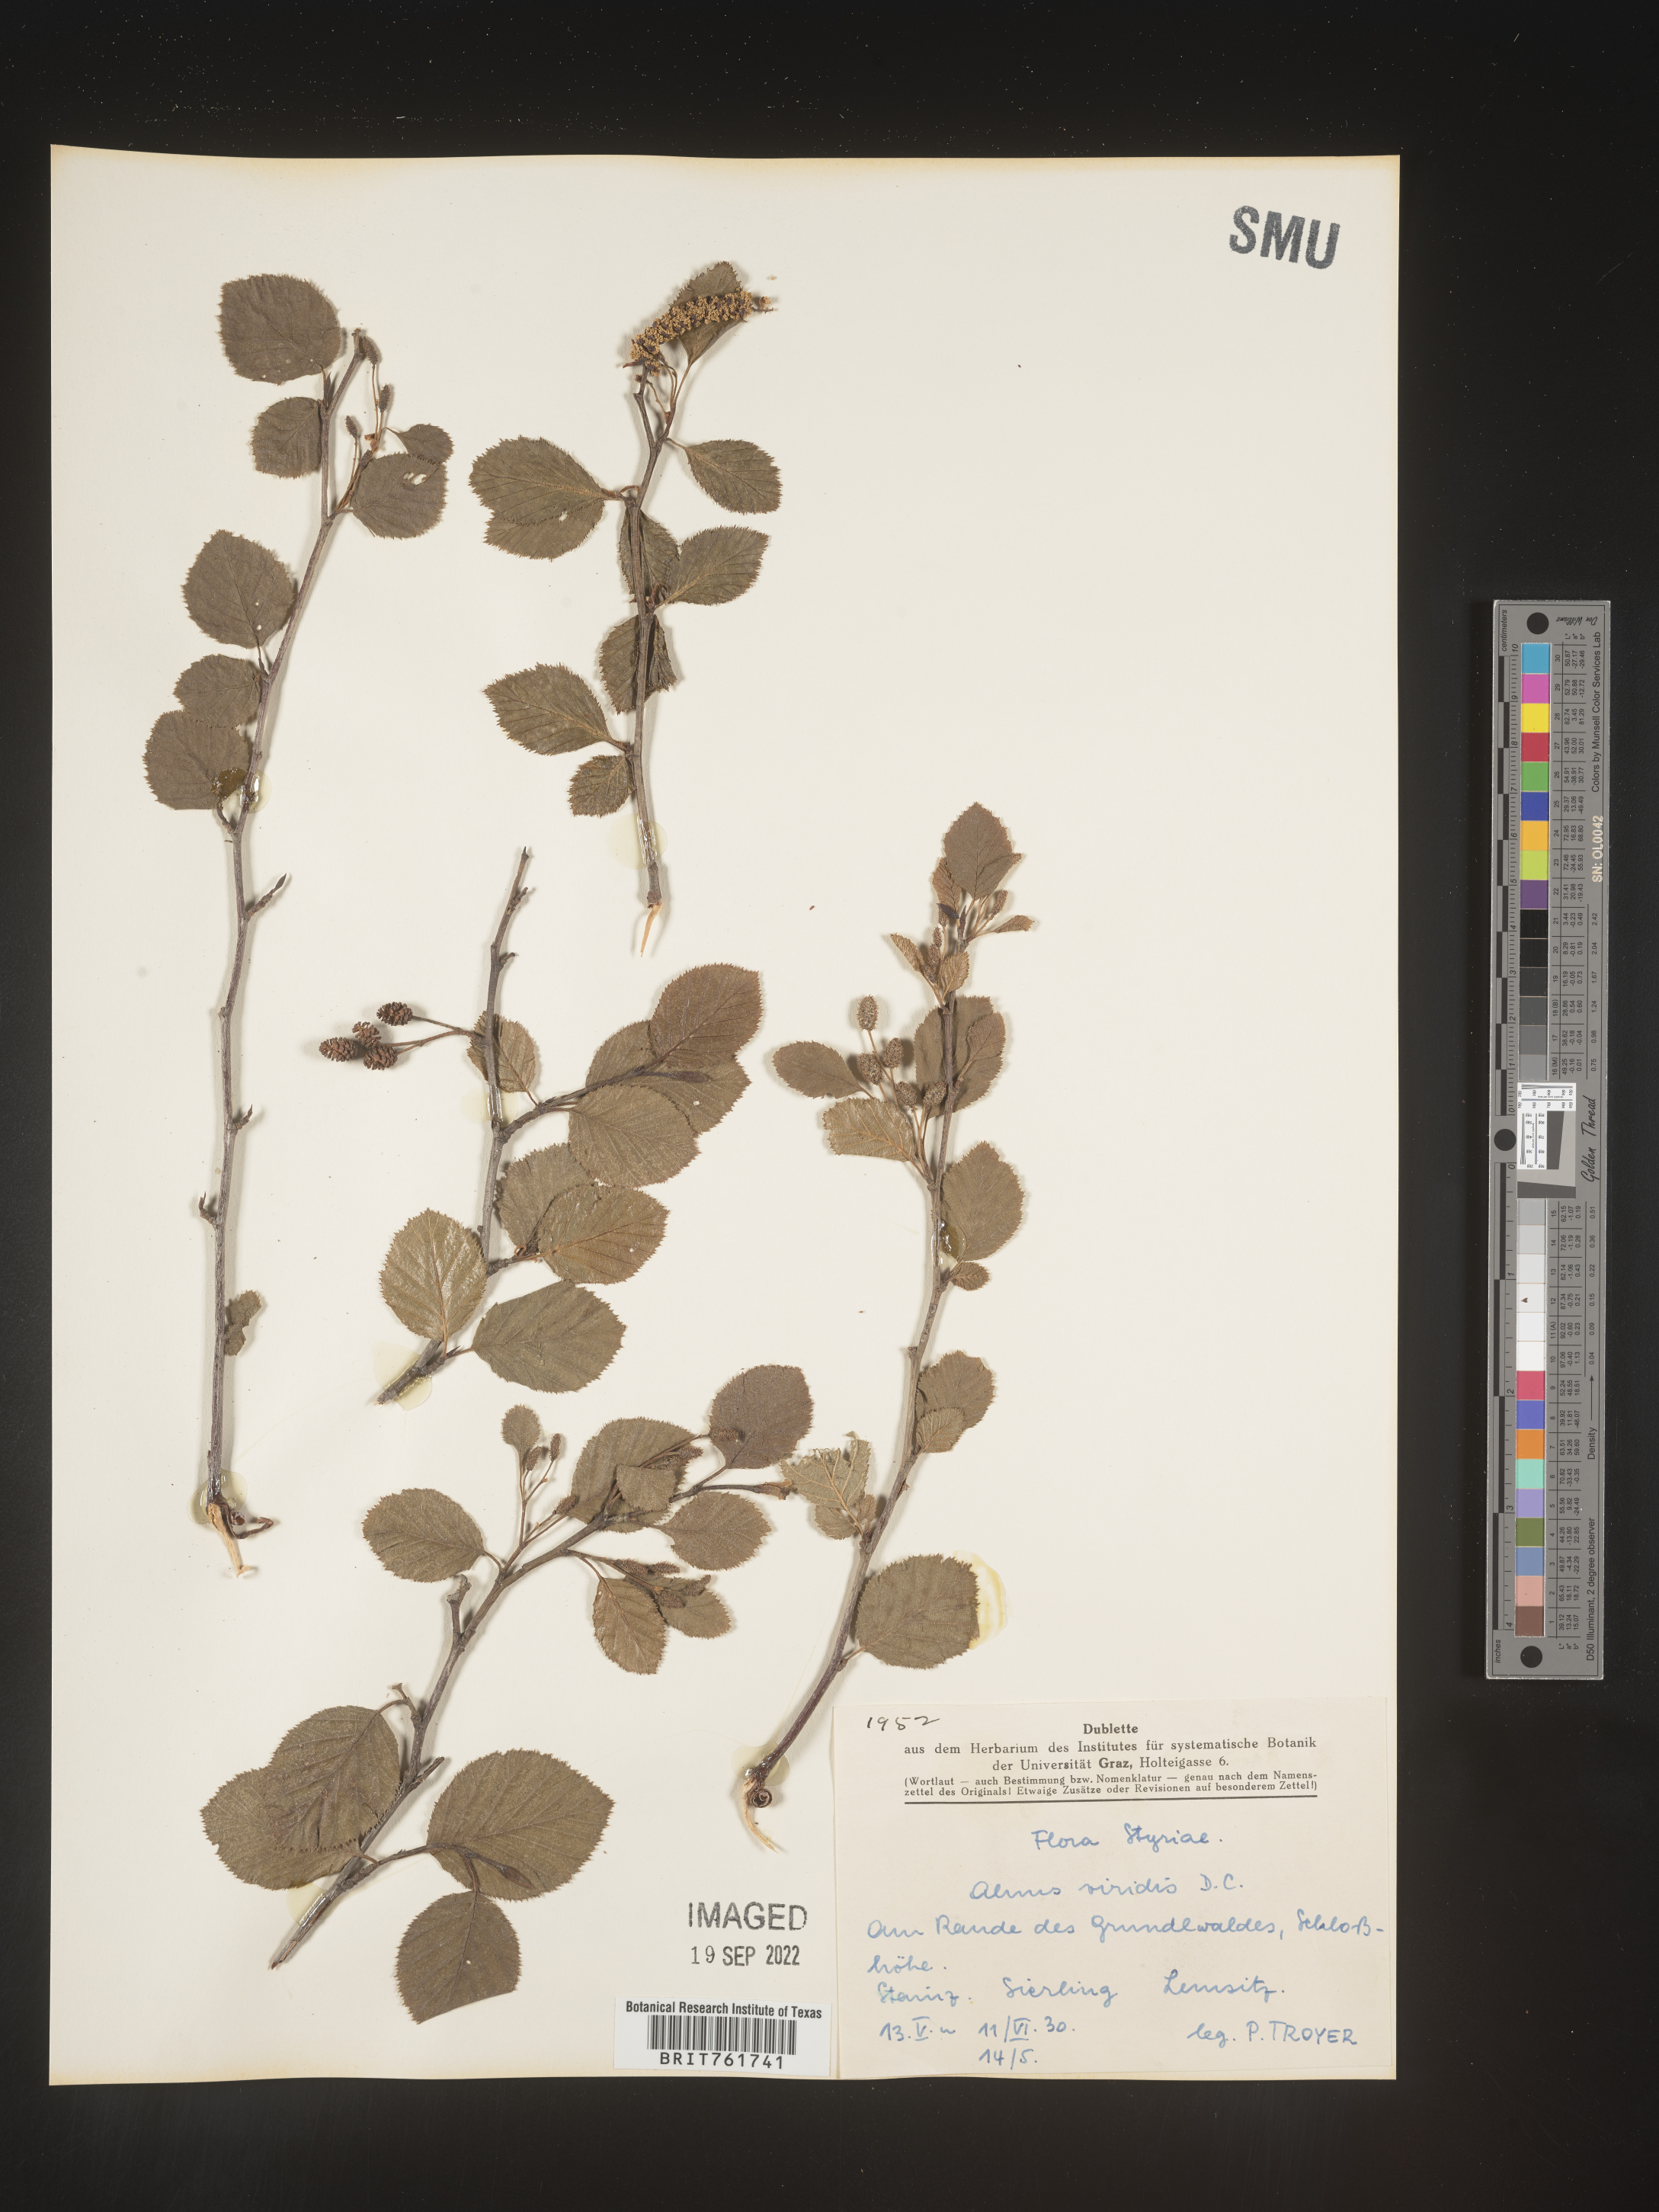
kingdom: Plantae
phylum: Tracheophyta
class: Magnoliopsida
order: Fagales
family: Betulaceae
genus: Alnus
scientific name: Alnus
